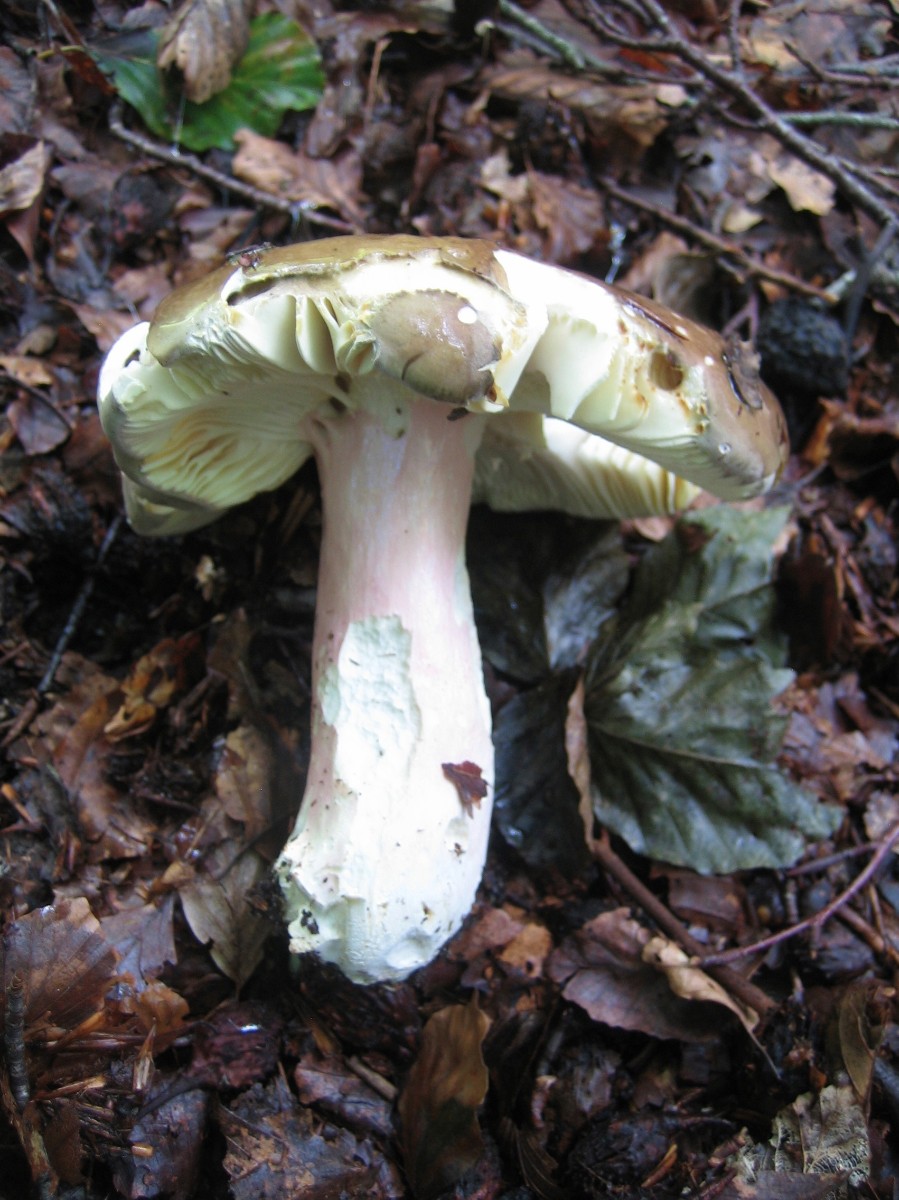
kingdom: Fungi
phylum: Basidiomycota
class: Agaricomycetes
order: Russulales
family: Russulaceae
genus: Russula
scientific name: Russula olivacea
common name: stor skørhat
